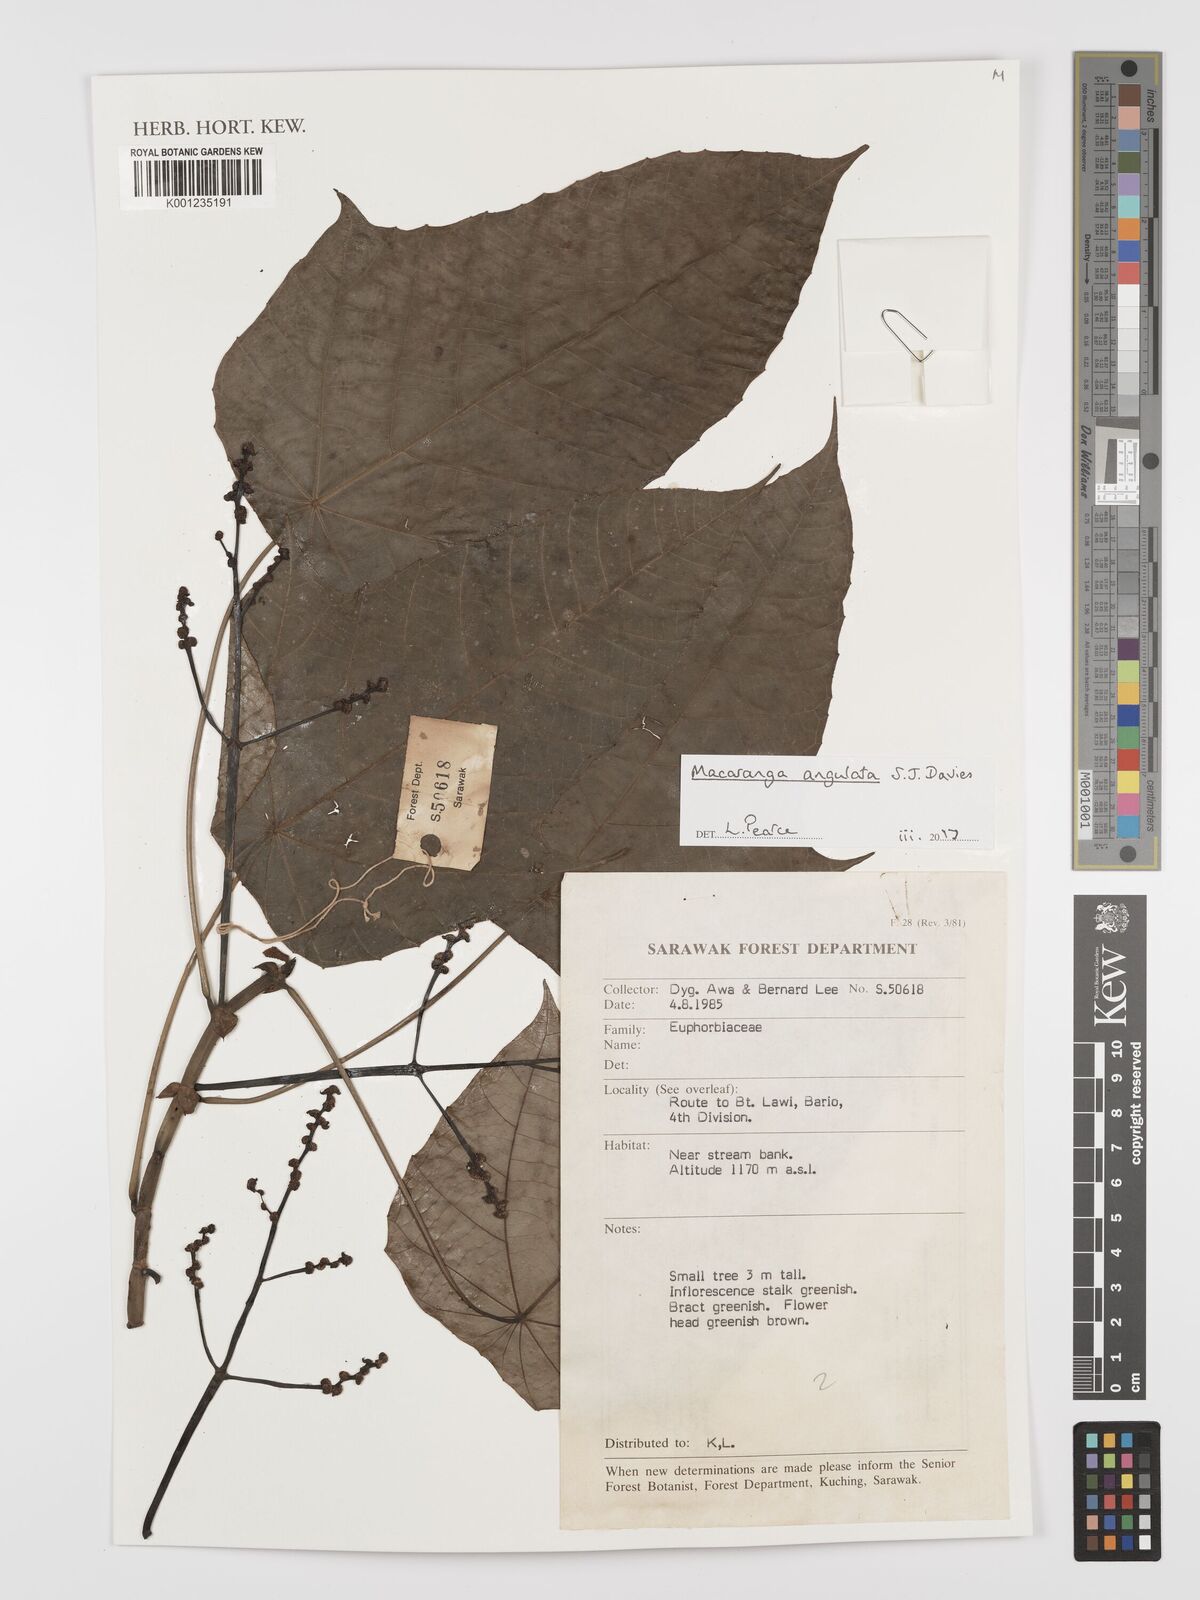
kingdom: Plantae
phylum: Tracheophyta
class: Magnoliopsida
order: Malpighiales
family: Euphorbiaceae
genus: Macaranga
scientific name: Macaranga angulata
